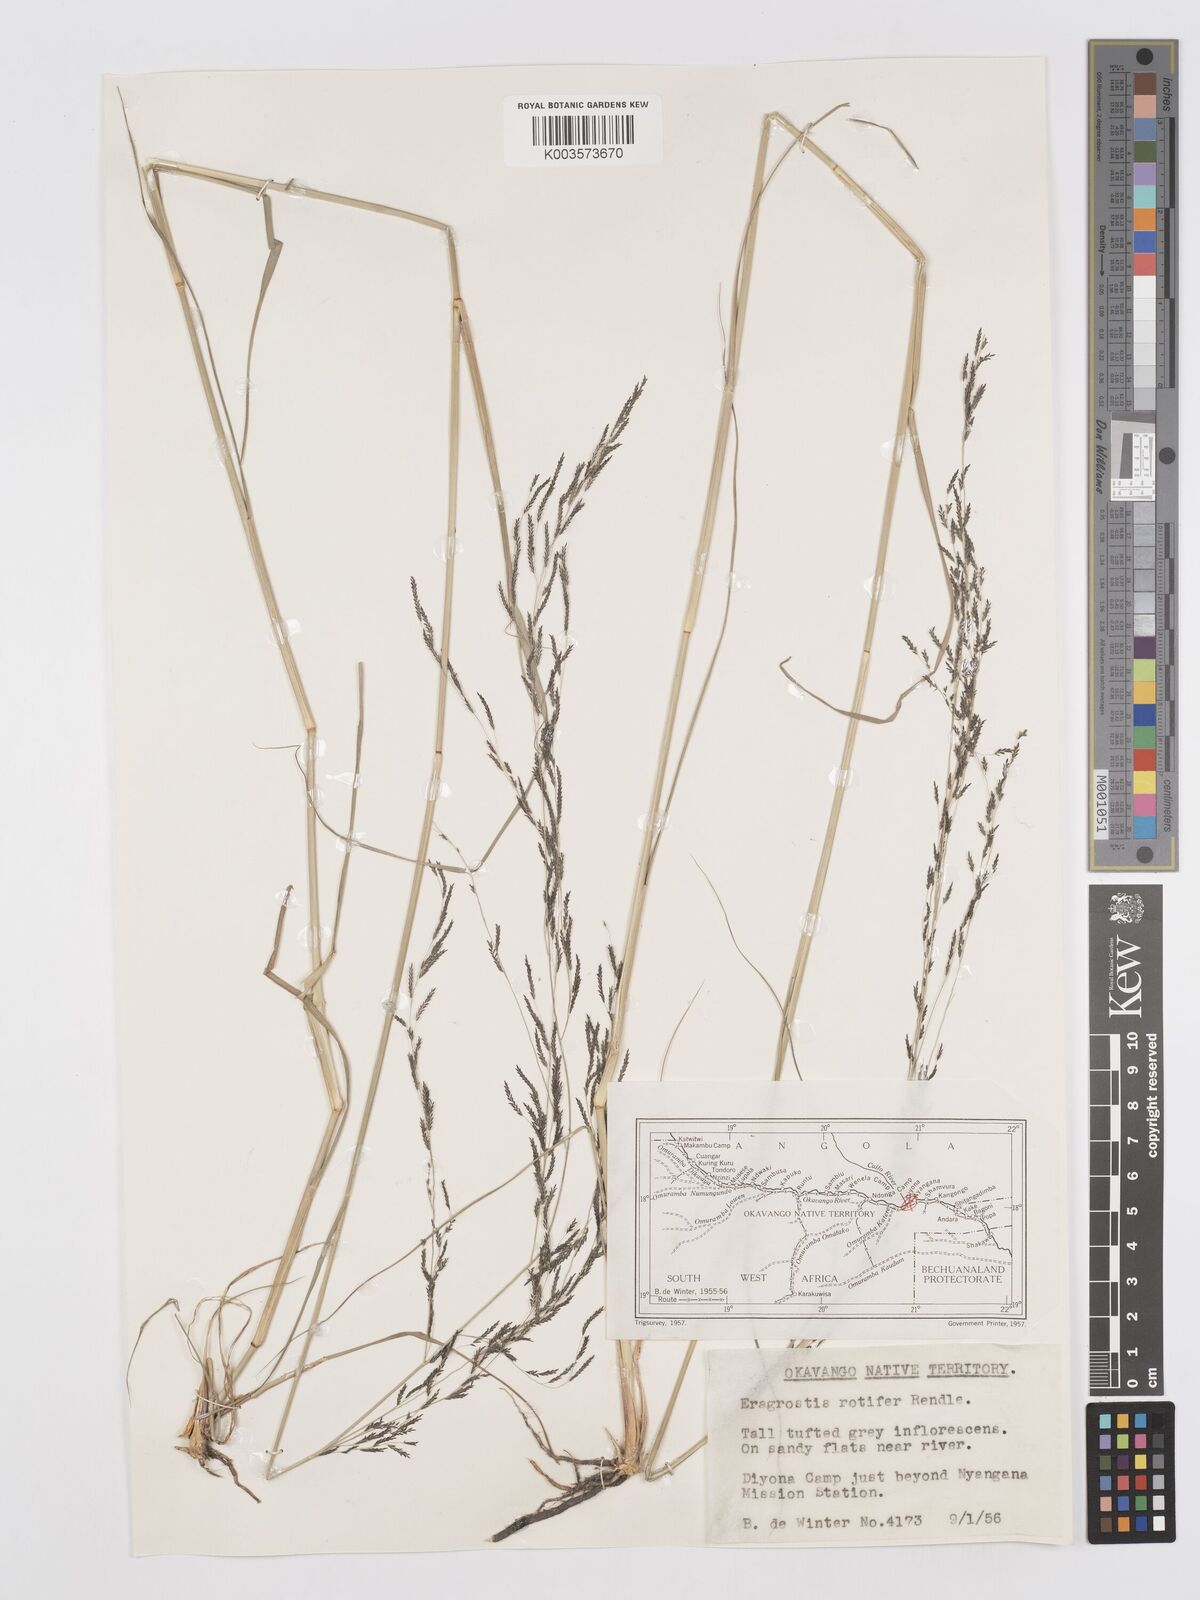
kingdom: Plantae
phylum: Tracheophyta
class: Liliopsida
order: Poales
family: Poaceae
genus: Eragrostis
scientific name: Eragrostis rotifer
